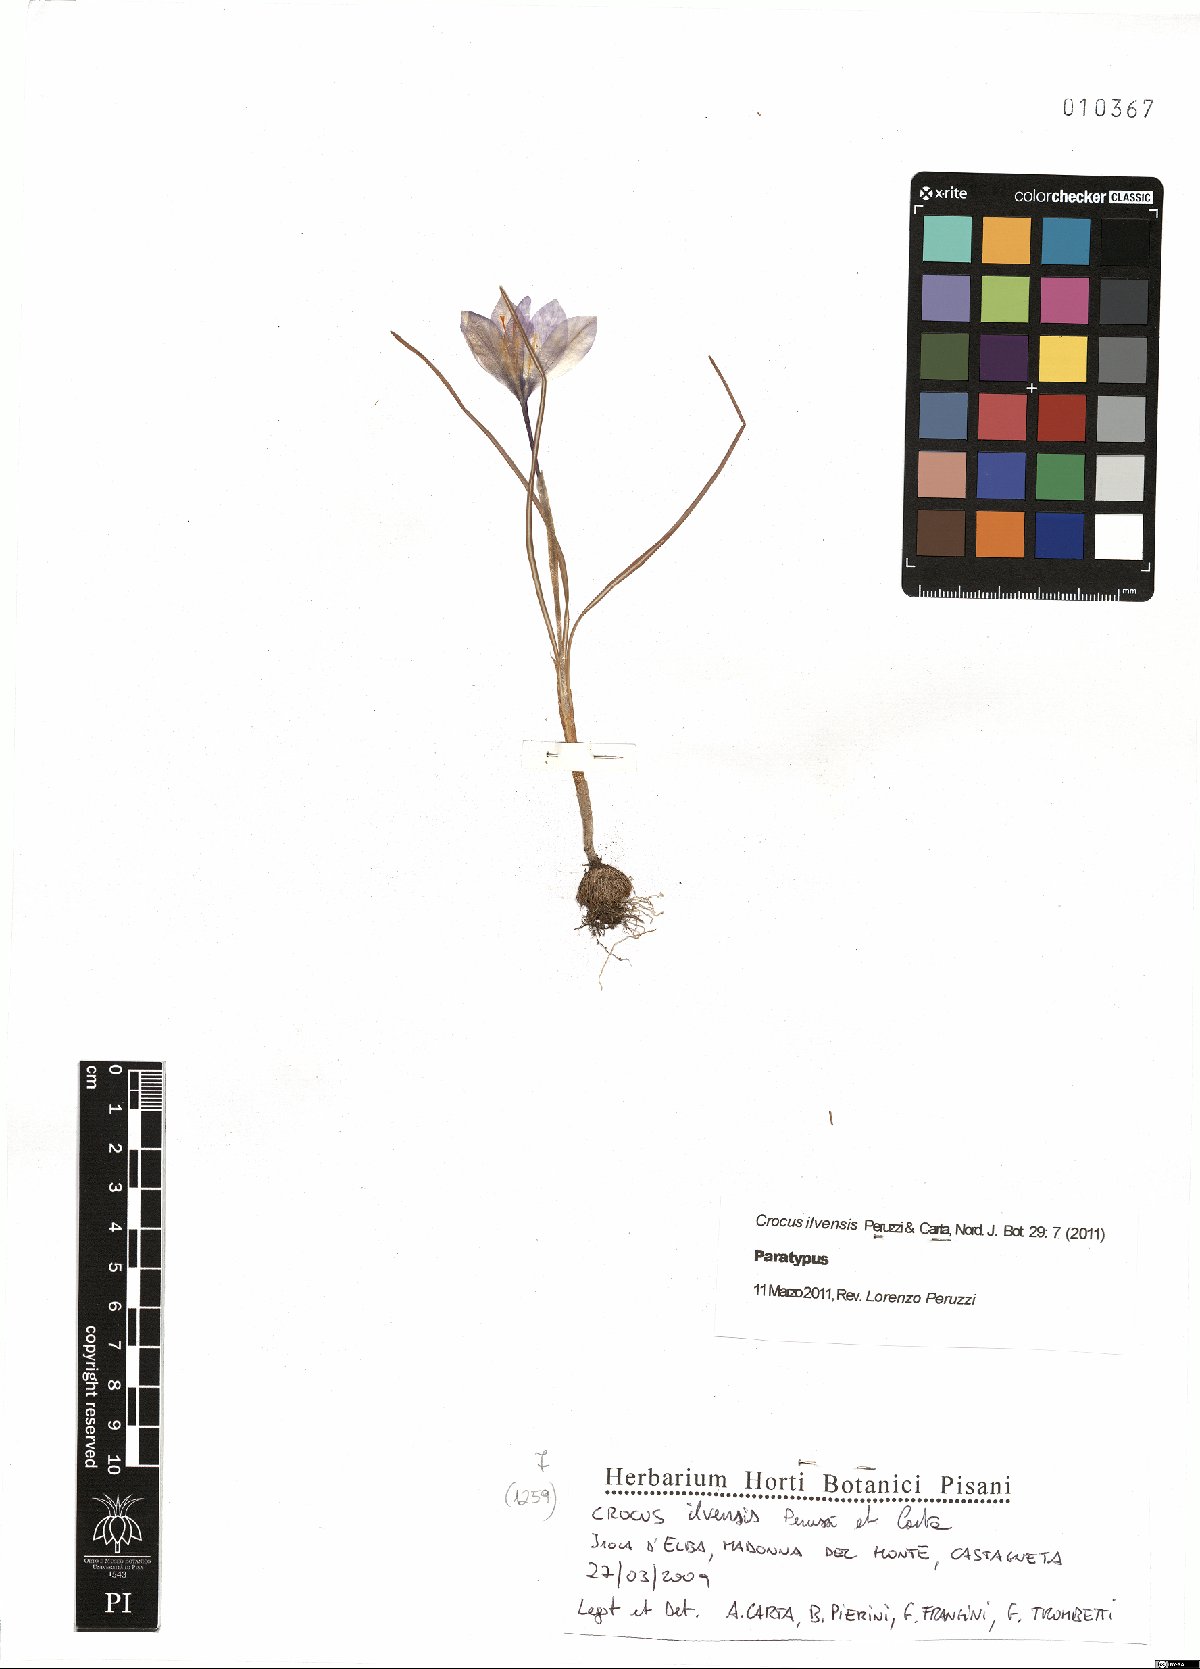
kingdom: Plantae
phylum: Tracheophyta
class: Liliopsida
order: Asparagales
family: Iridaceae
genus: Crocus
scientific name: Crocus ilvensis
